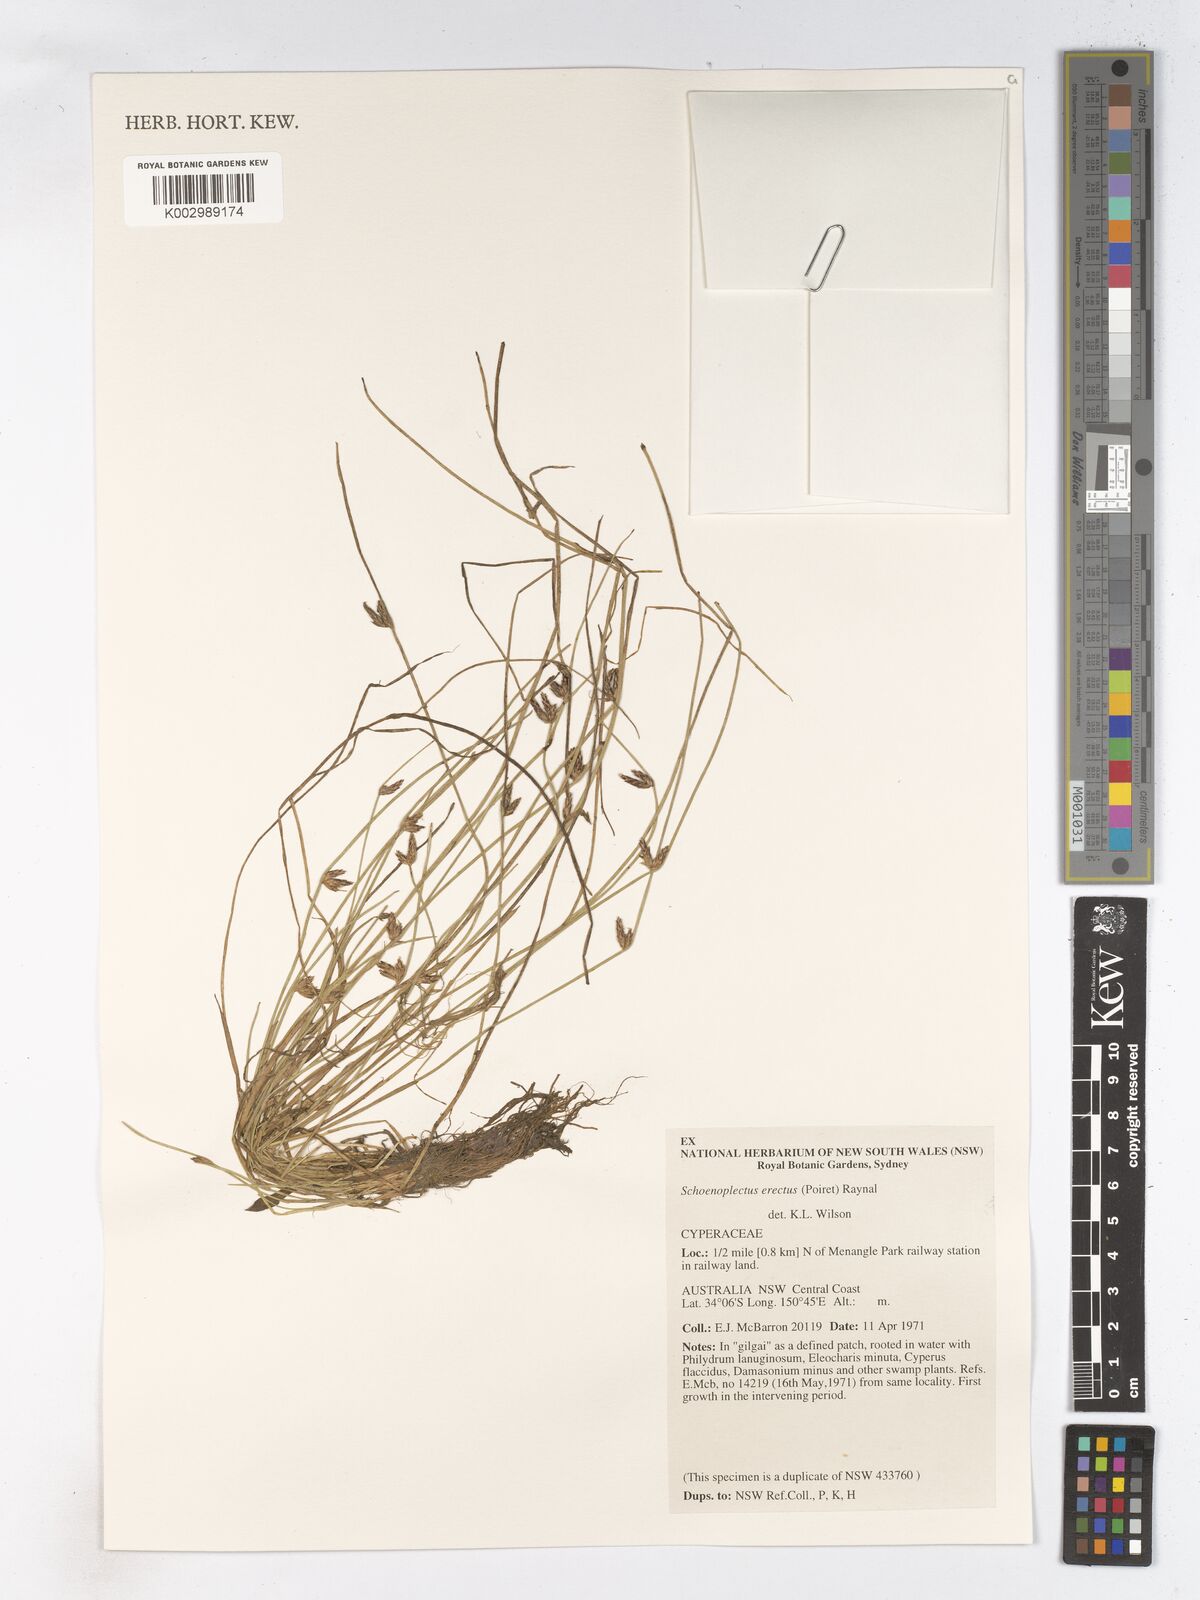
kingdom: Plantae
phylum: Tracheophyta
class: Liliopsida
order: Poales
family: Cyperaceae
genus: Schoenoplectiella
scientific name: Schoenoplectiella erecta
